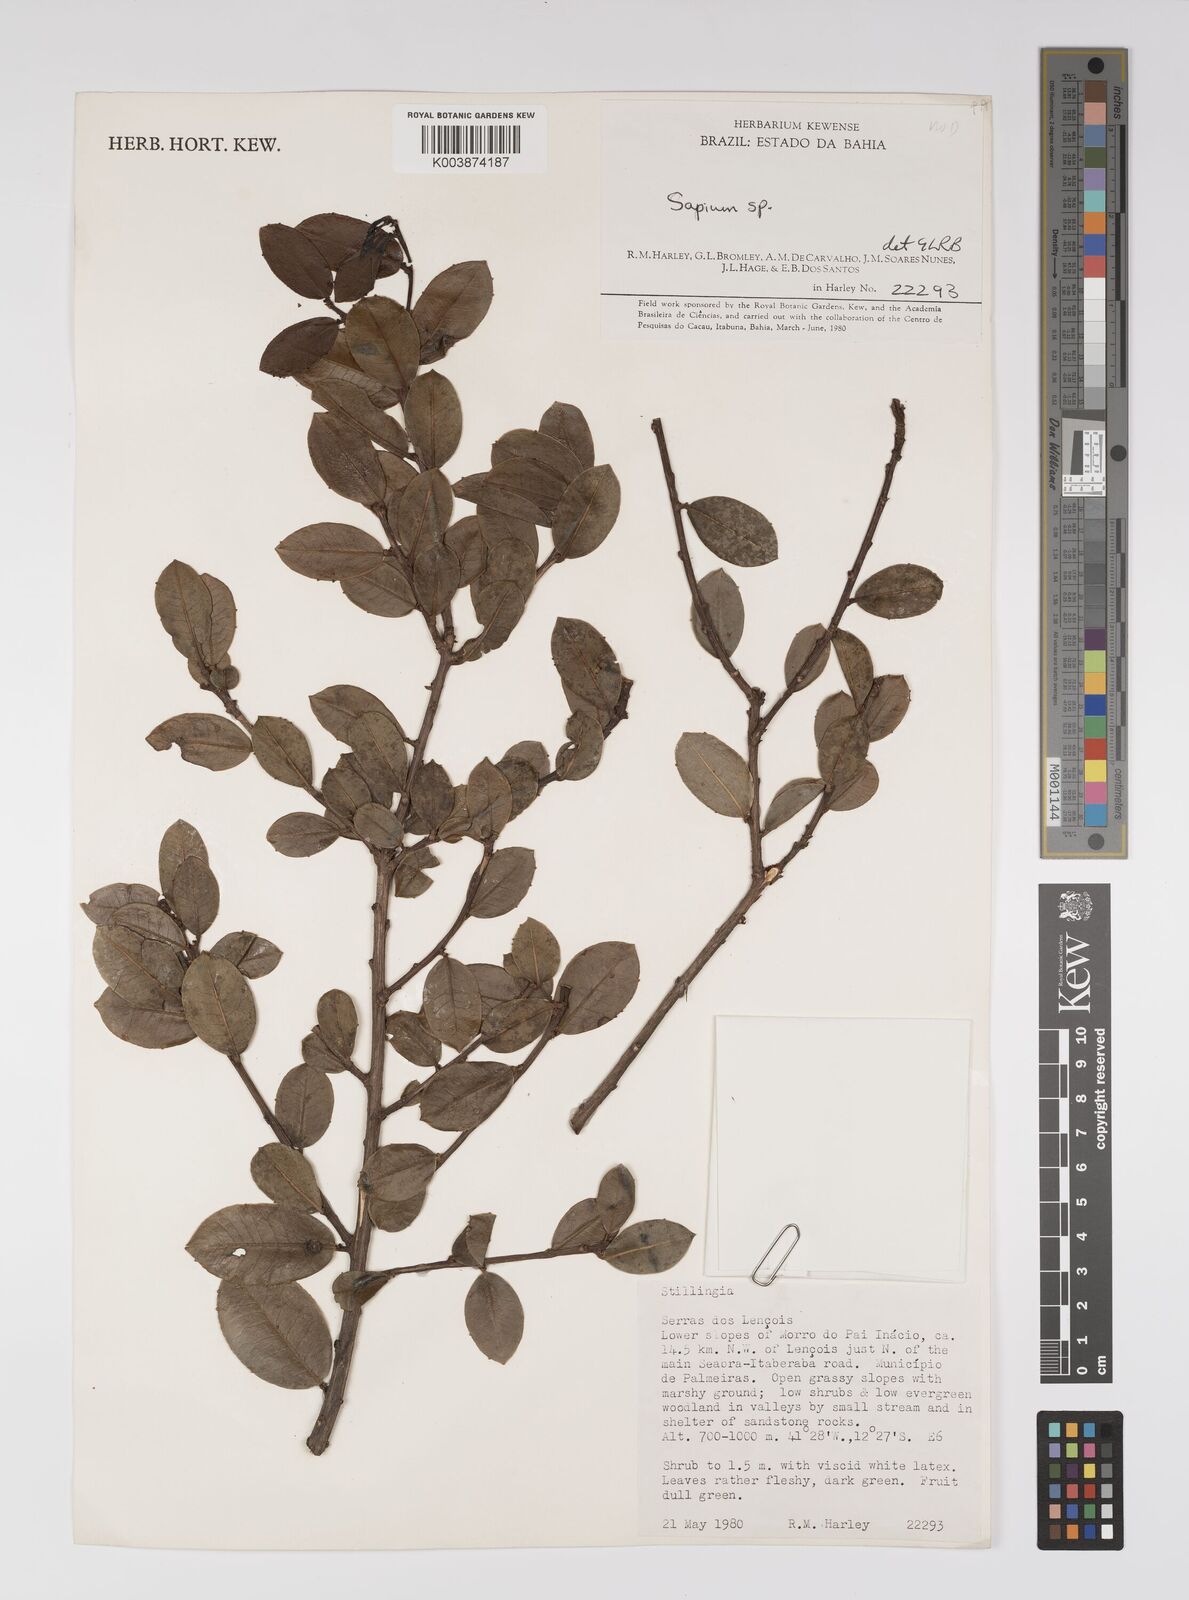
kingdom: Plantae
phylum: Tracheophyta
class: Magnoliopsida
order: Malpighiales
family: Euphorbiaceae
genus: Sapium
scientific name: Sapium
